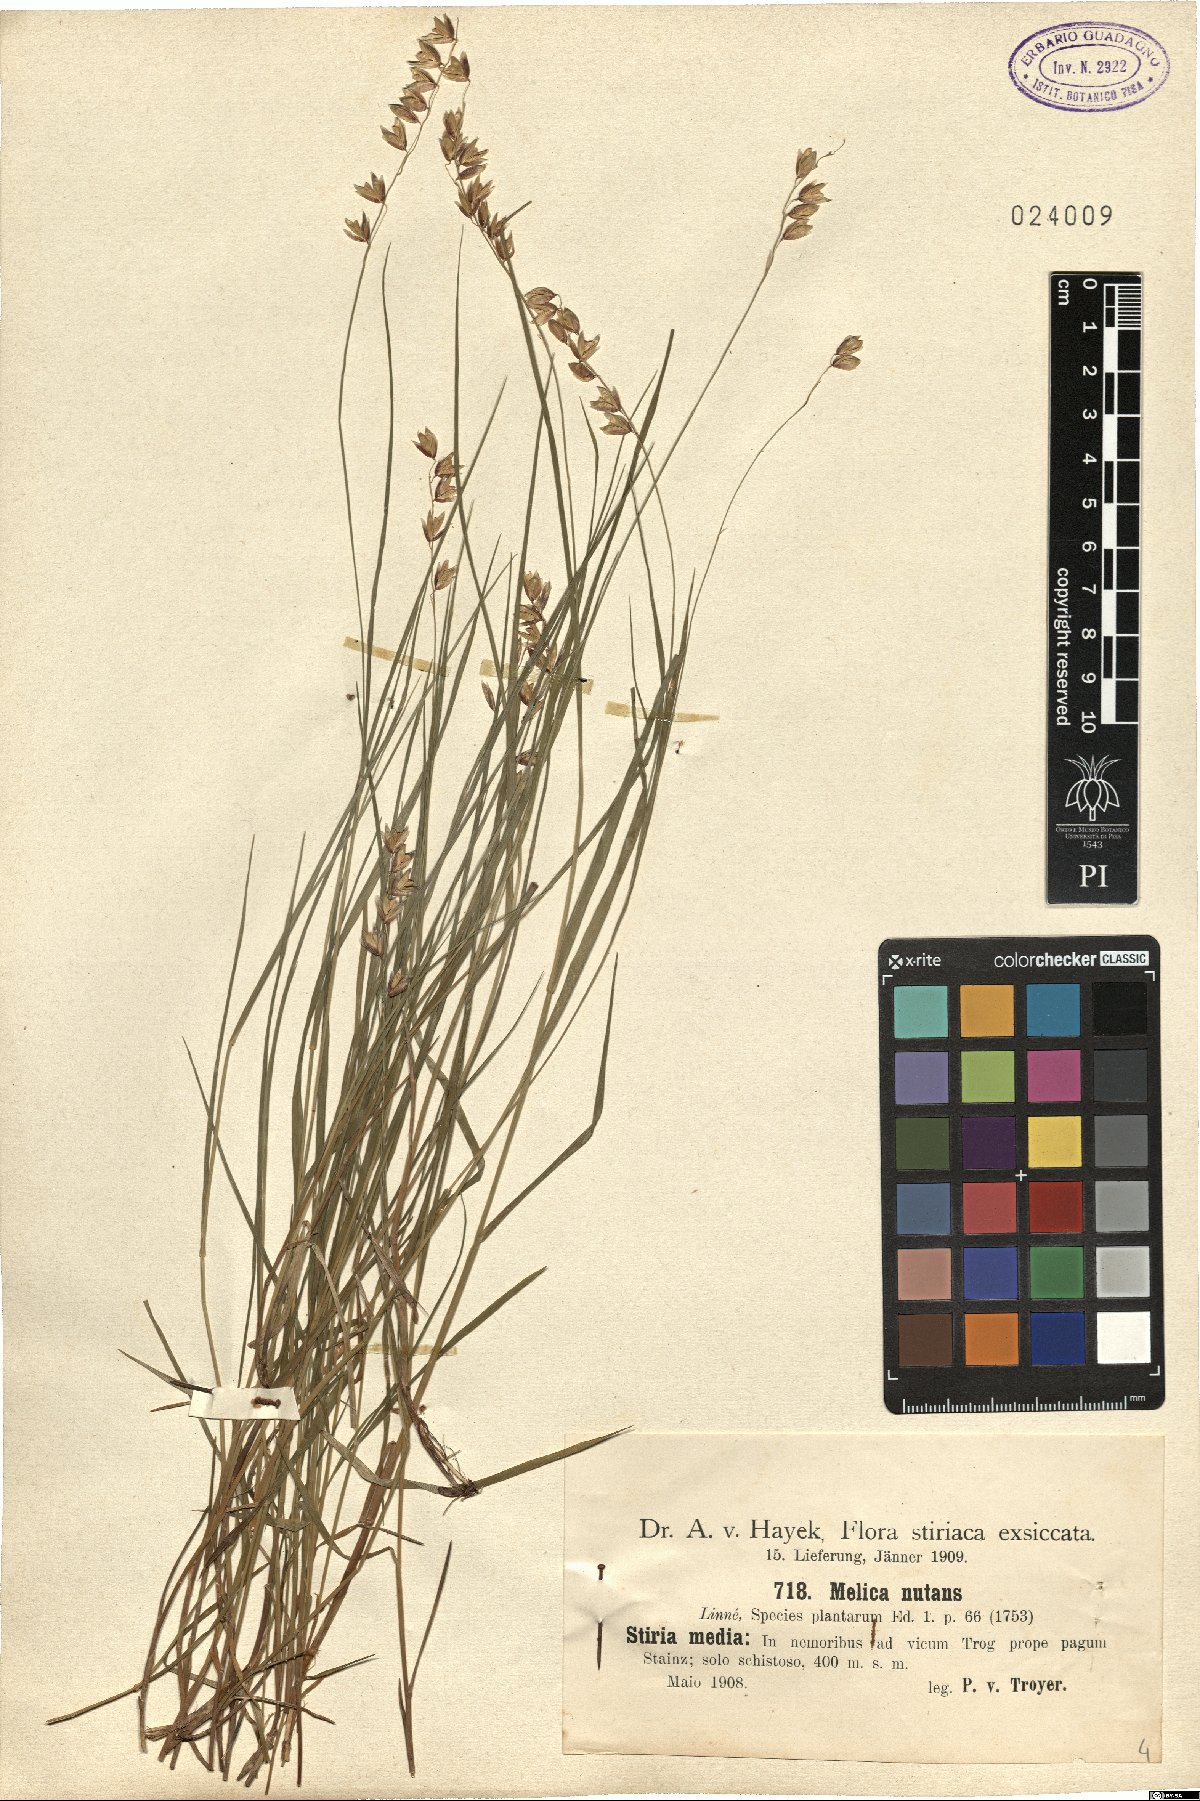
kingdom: Plantae
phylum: Tracheophyta
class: Liliopsida
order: Poales
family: Poaceae
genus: Melica
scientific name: Melica nutans
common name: Mountain melick
